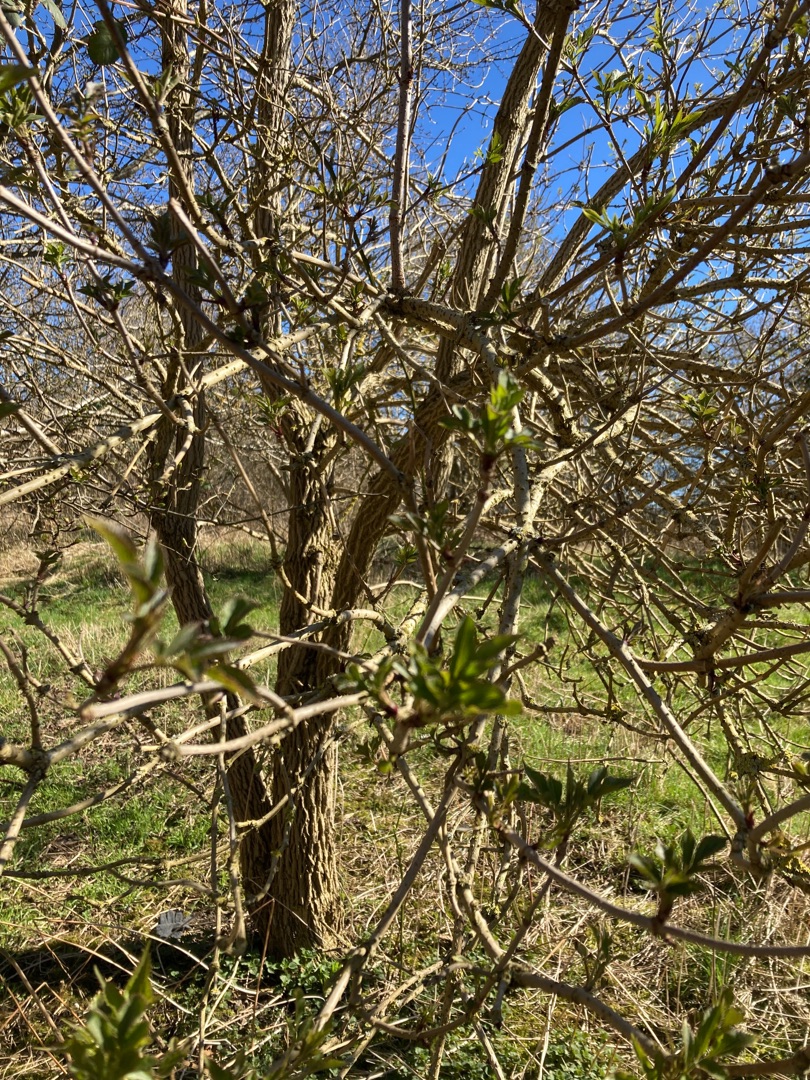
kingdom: Plantae
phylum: Tracheophyta
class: Magnoliopsida
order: Dipsacales
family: Viburnaceae
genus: Sambucus
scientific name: Sambucus nigra
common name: Almindelig hyld
